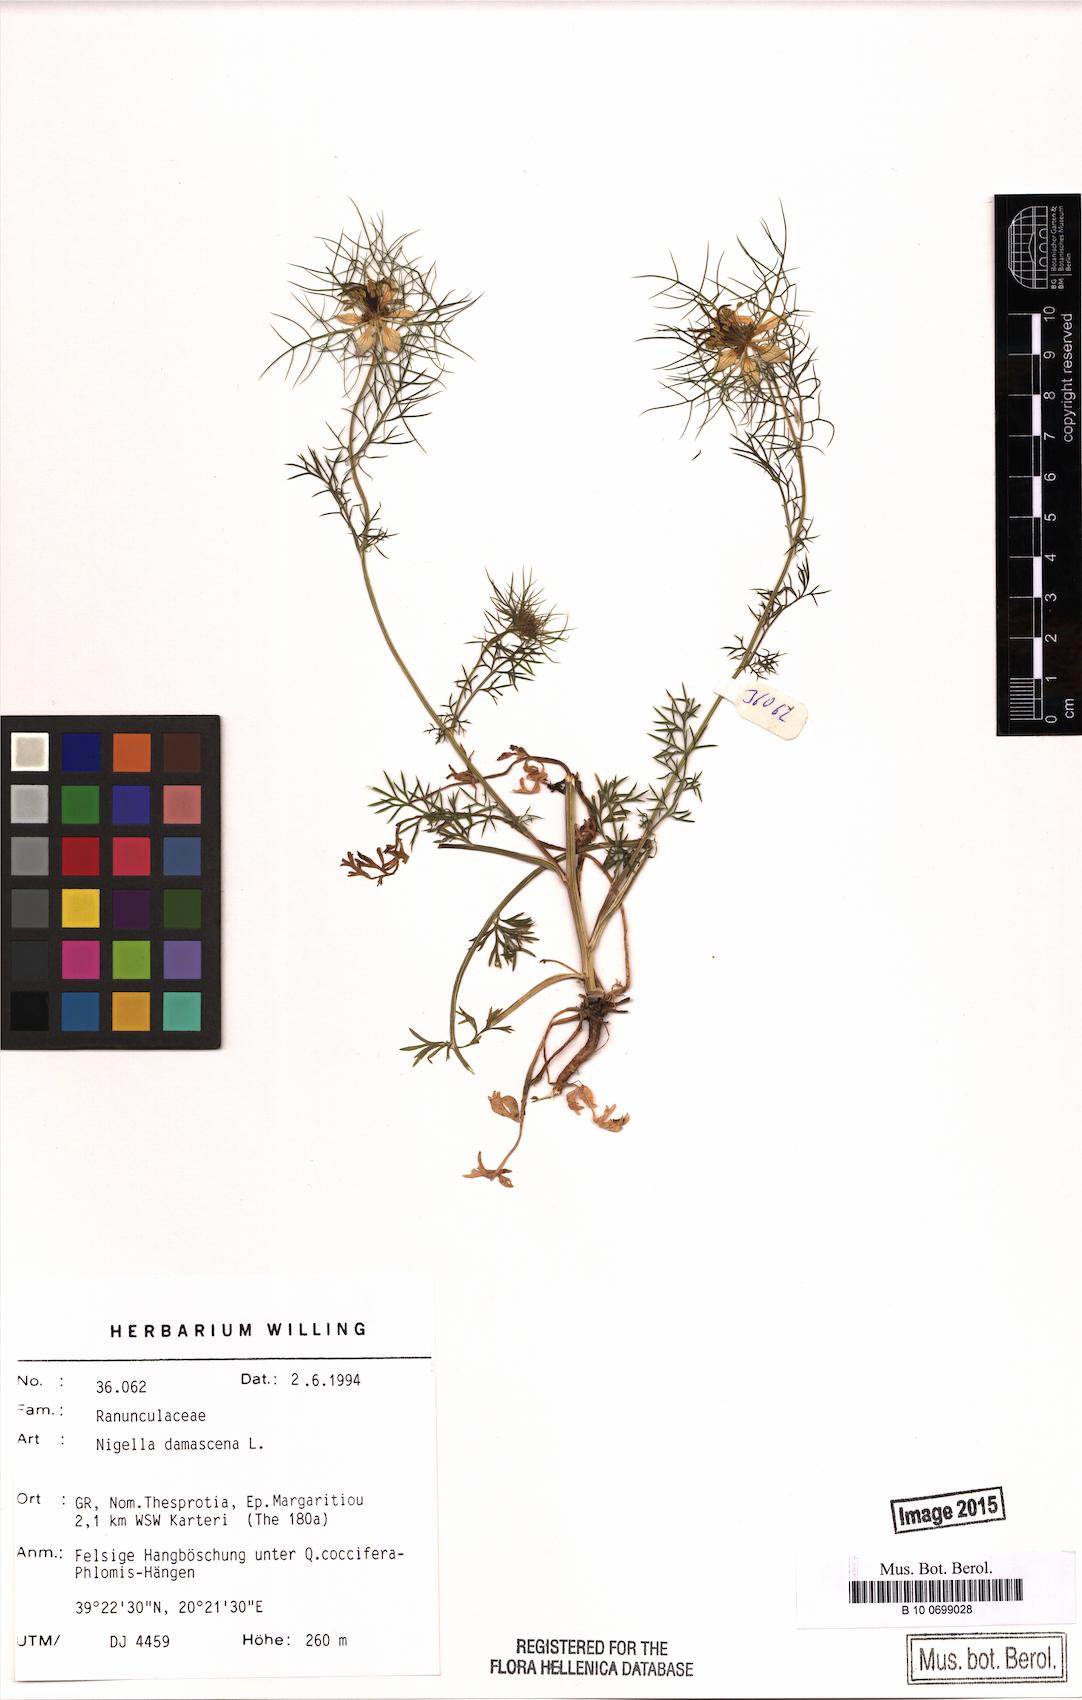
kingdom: Plantae
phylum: Tracheophyta
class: Magnoliopsida
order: Ranunculales
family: Ranunculaceae
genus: Nigella
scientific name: Nigella damascena
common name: Love-in-a-mist
